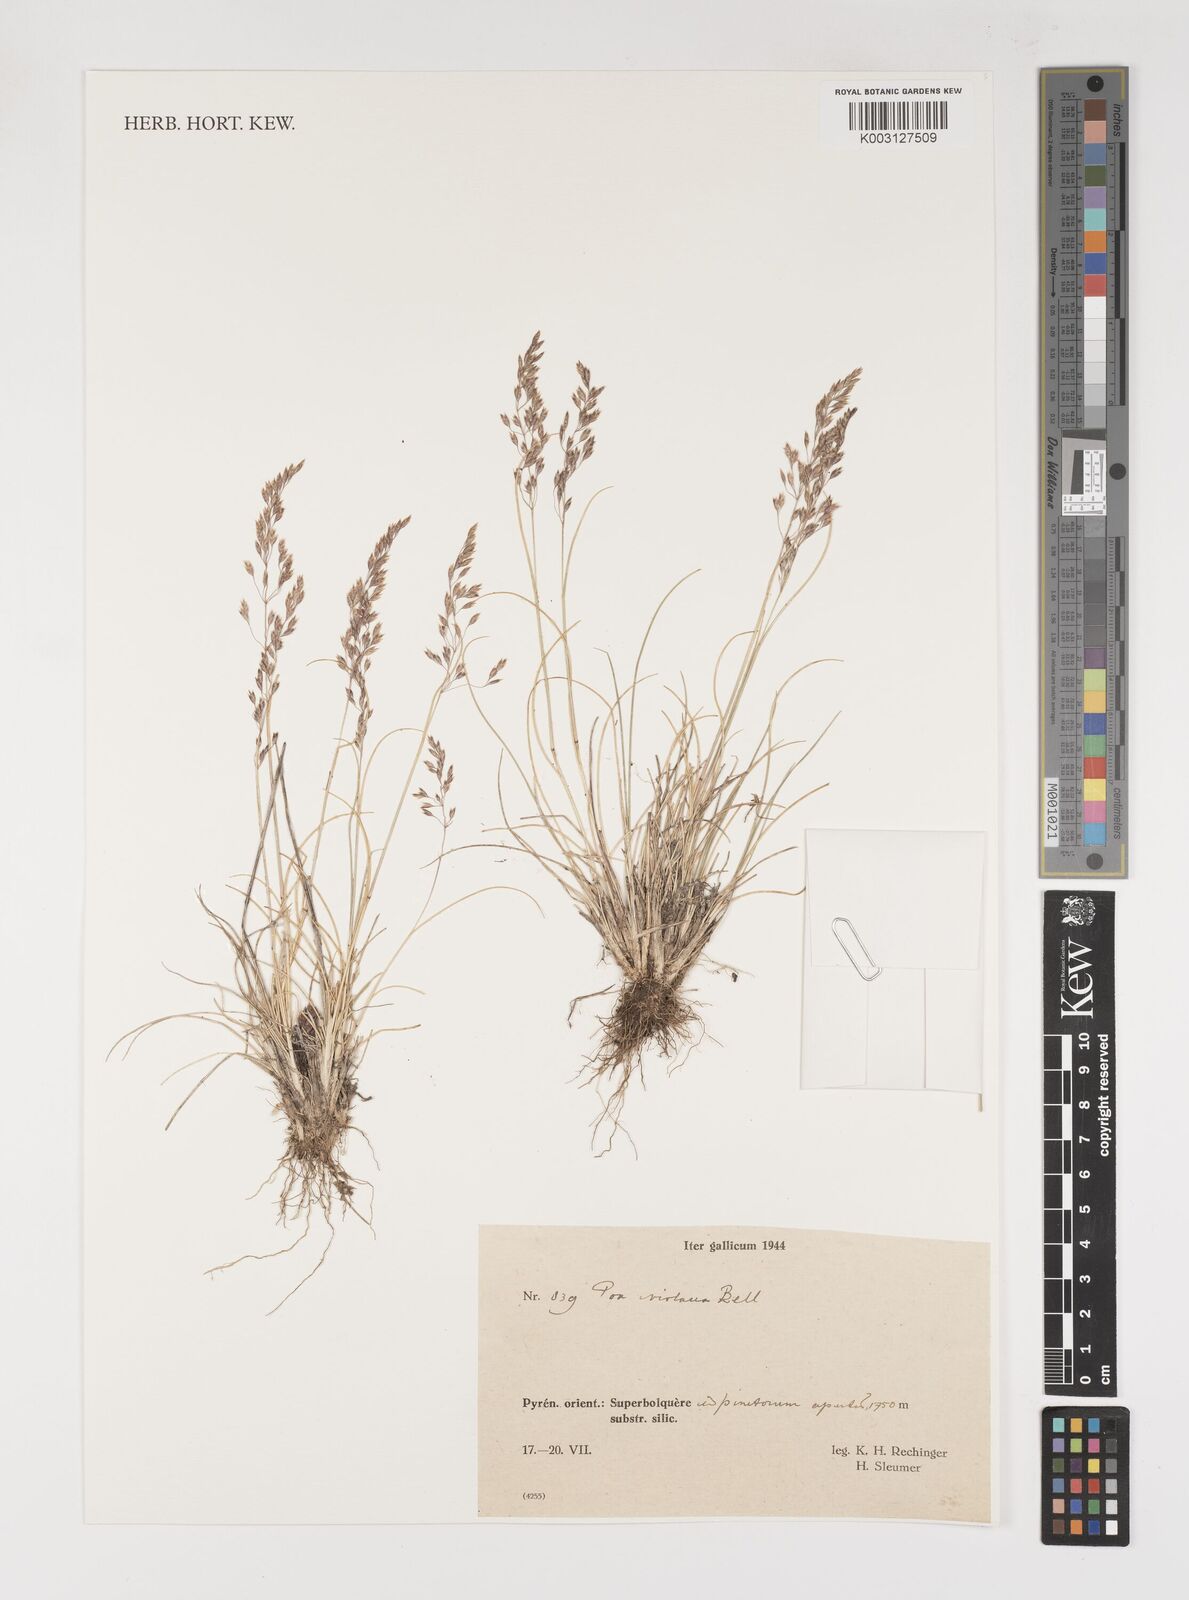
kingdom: Plantae
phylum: Tracheophyta
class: Liliopsida
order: Poales
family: Poaceae
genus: Bellardiochloa
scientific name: Bellardiochloa variegata
